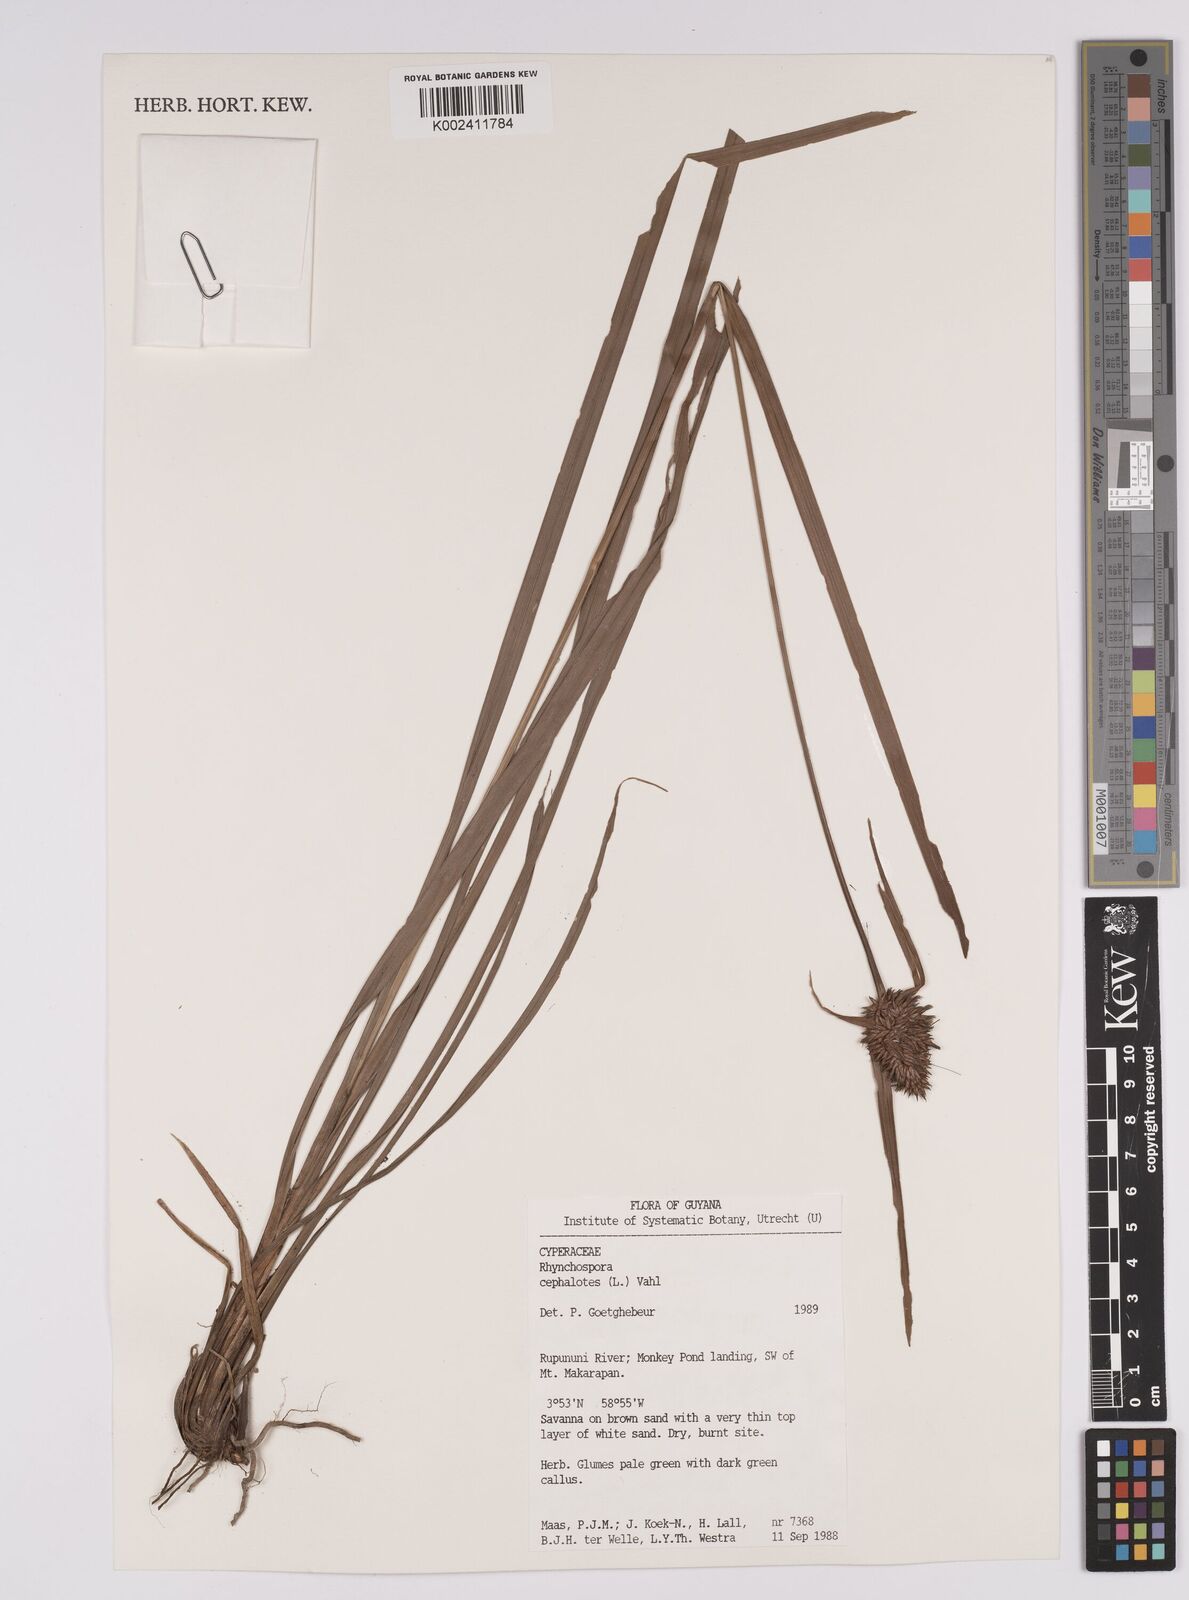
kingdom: Plantae
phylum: Tracheophyta
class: Liliopsida
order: Poales
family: Cyperaceae
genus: Rhynchospora
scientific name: Rhynchospora cephalotes
